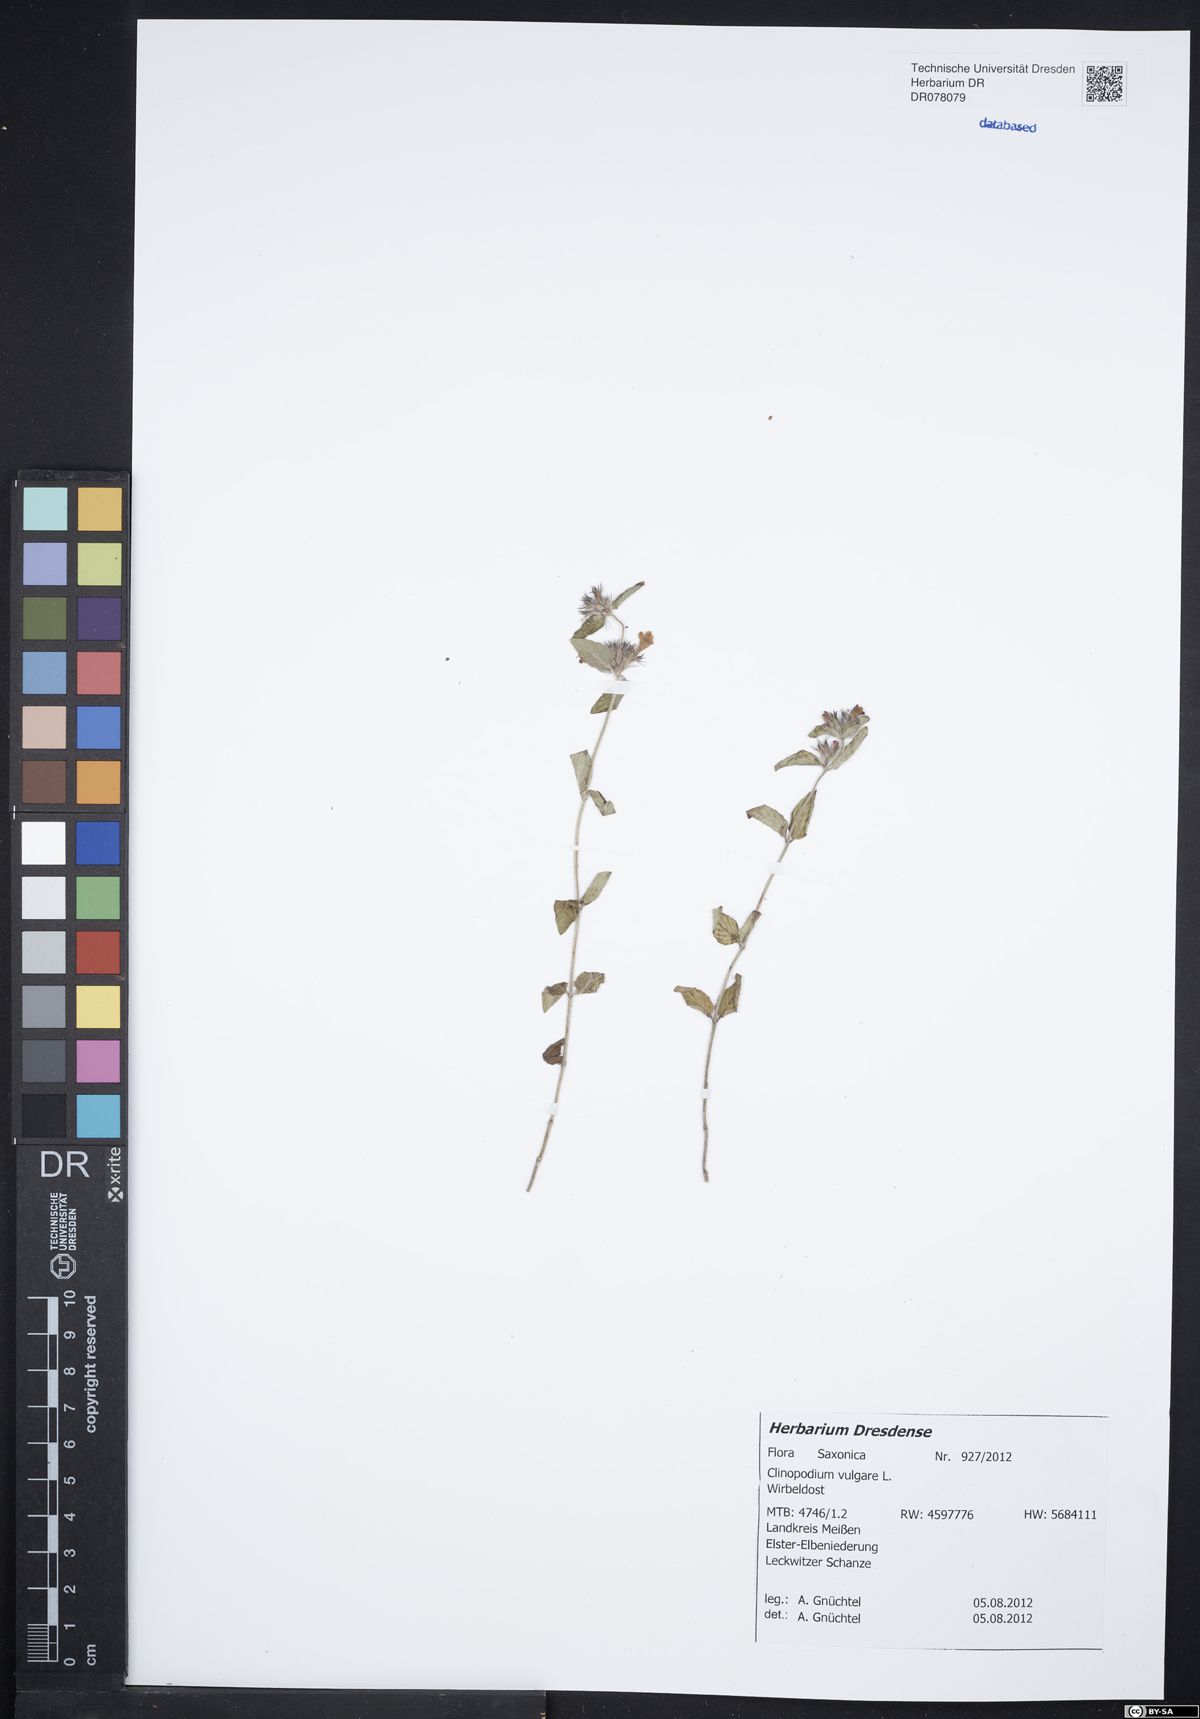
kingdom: Plantae
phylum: Tracheophyta
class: Magnoliopsida
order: Lamiales
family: Lamiaceae
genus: Clinopodium
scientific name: Clinopodium vulgare
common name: Wild basil
